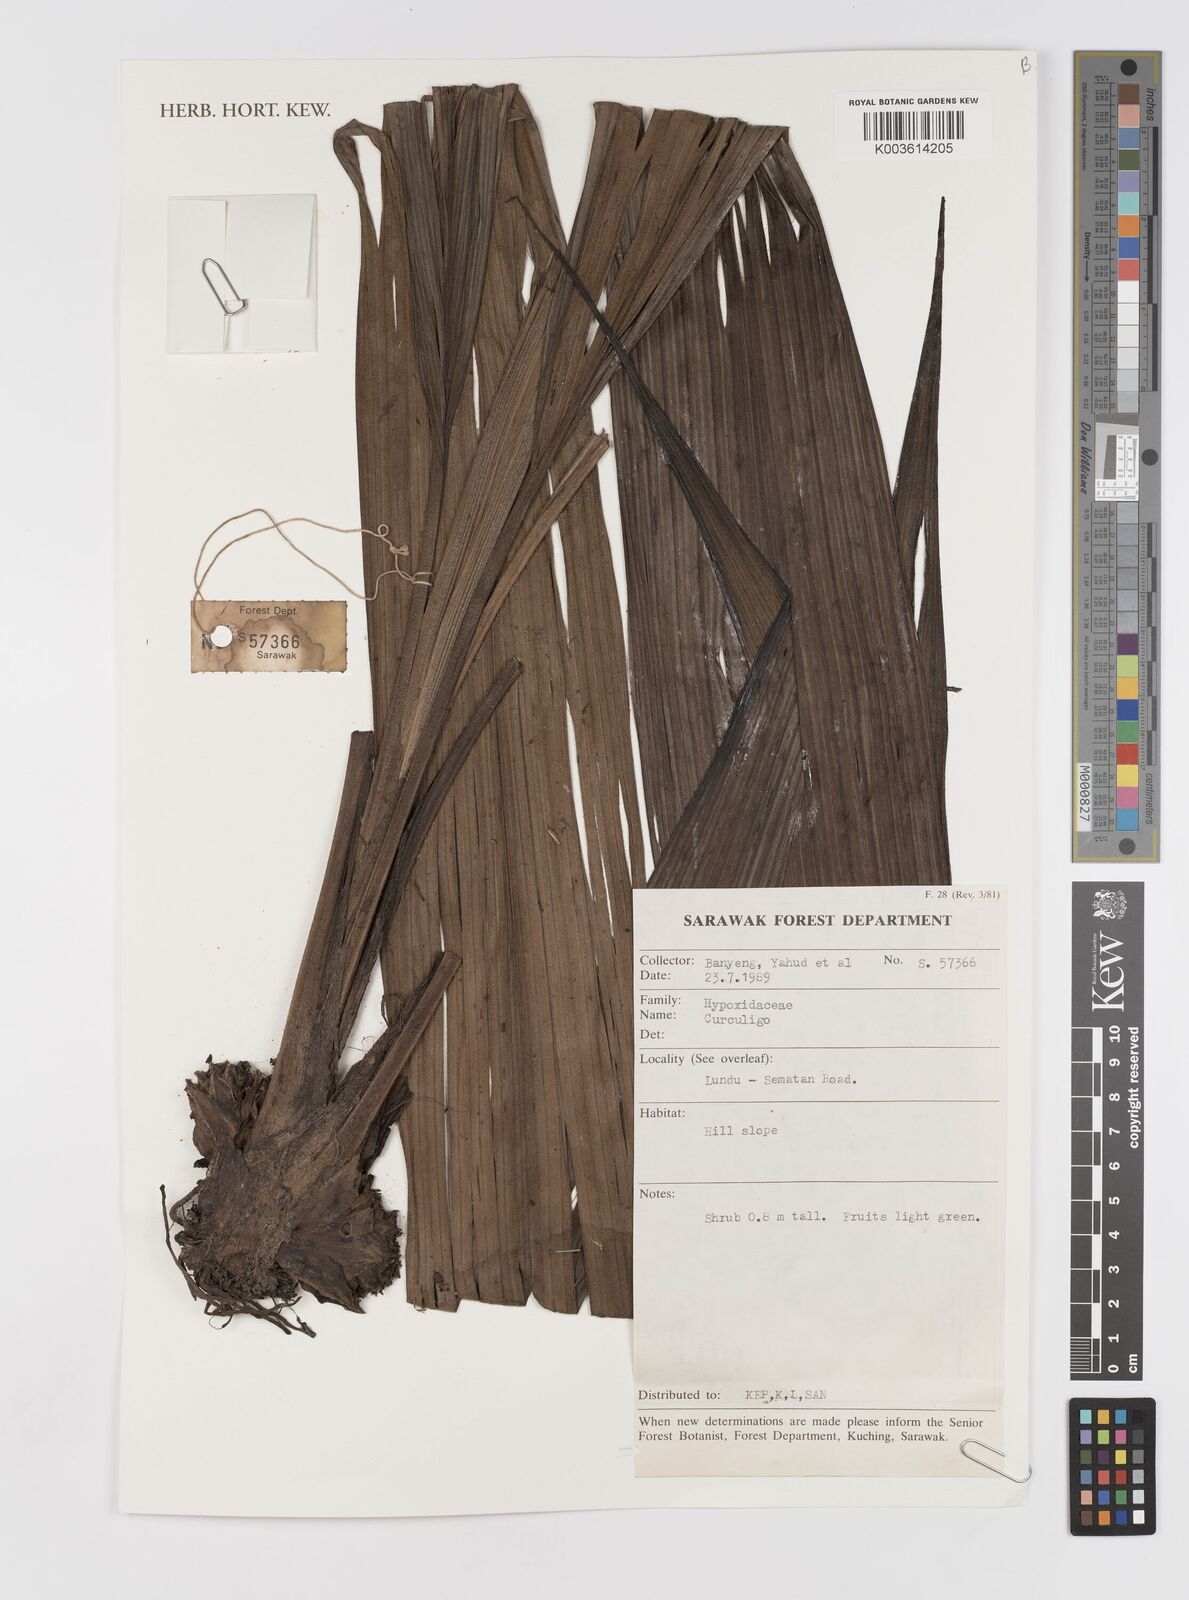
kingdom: Plantae
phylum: Tracheophyta
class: Liliopsida
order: Asparagales
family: Hypoxidaceae
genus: Curculigo
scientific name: Curculigo
